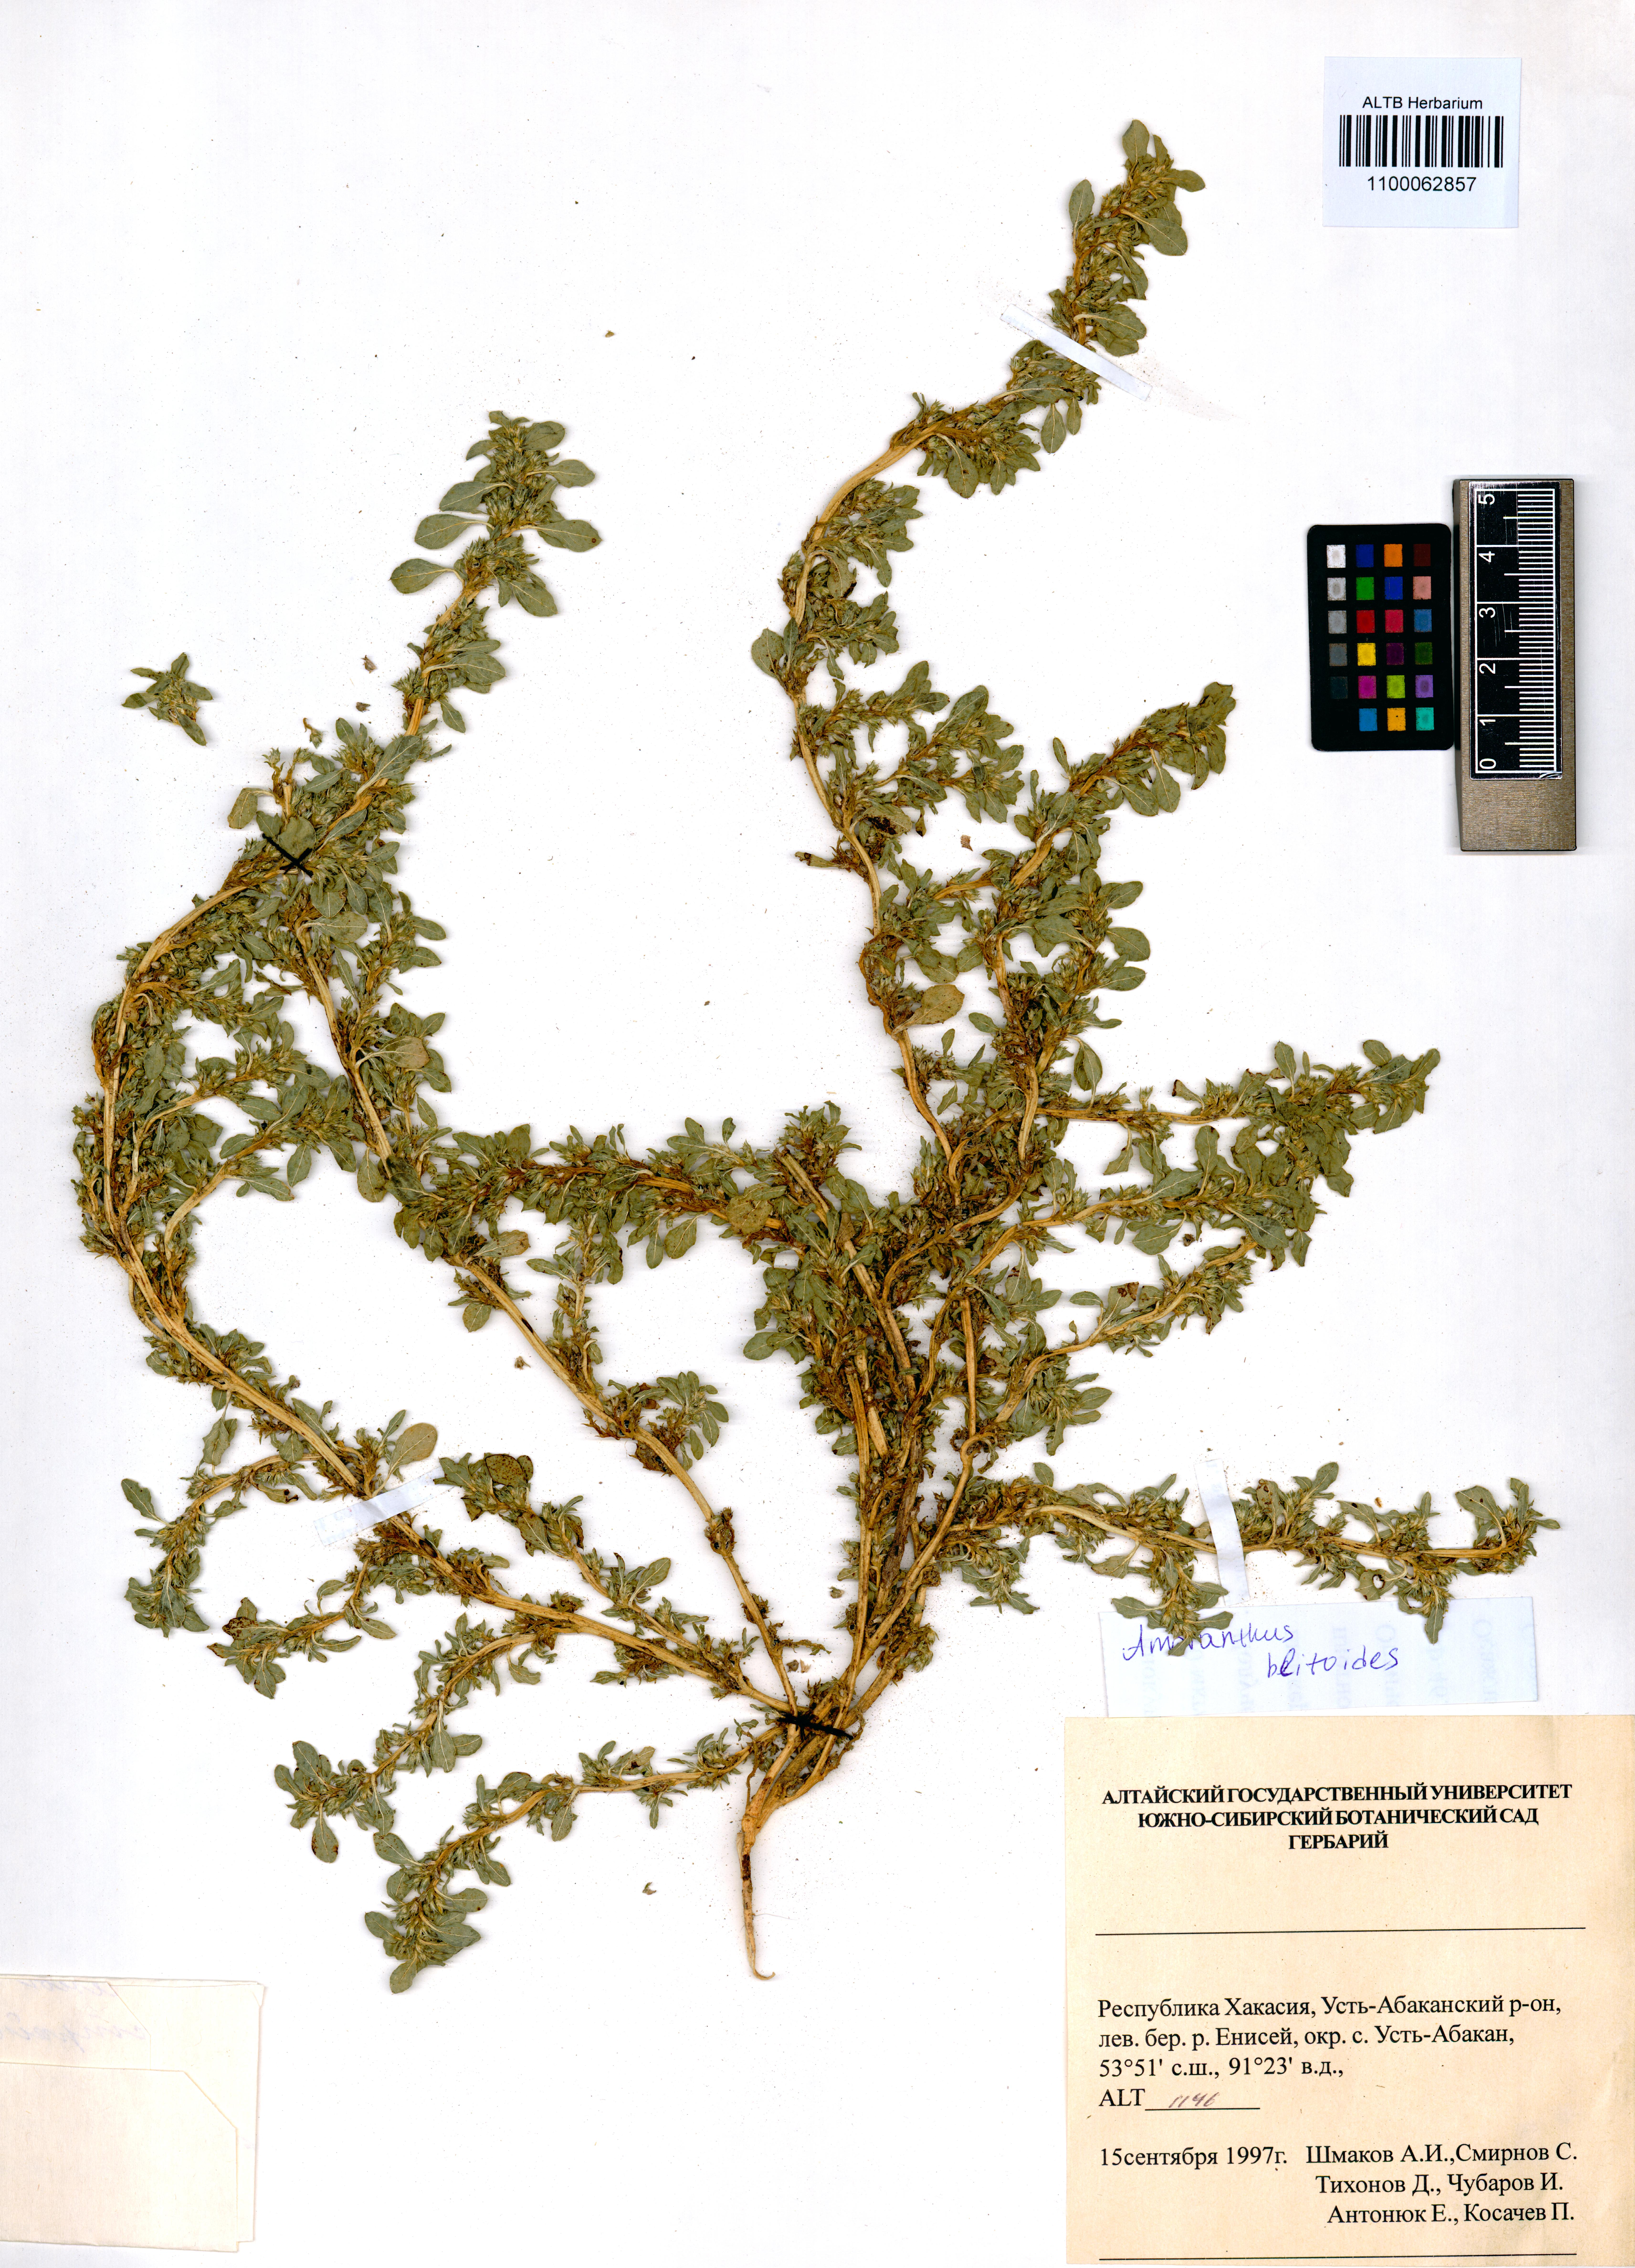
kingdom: Plantae
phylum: Tracheophyta
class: Magnoliopsida
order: Caryophyllales
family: Amaranthaceae
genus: Amaranthus
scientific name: Amaranthus blitoides
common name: Prostrate pigweed
